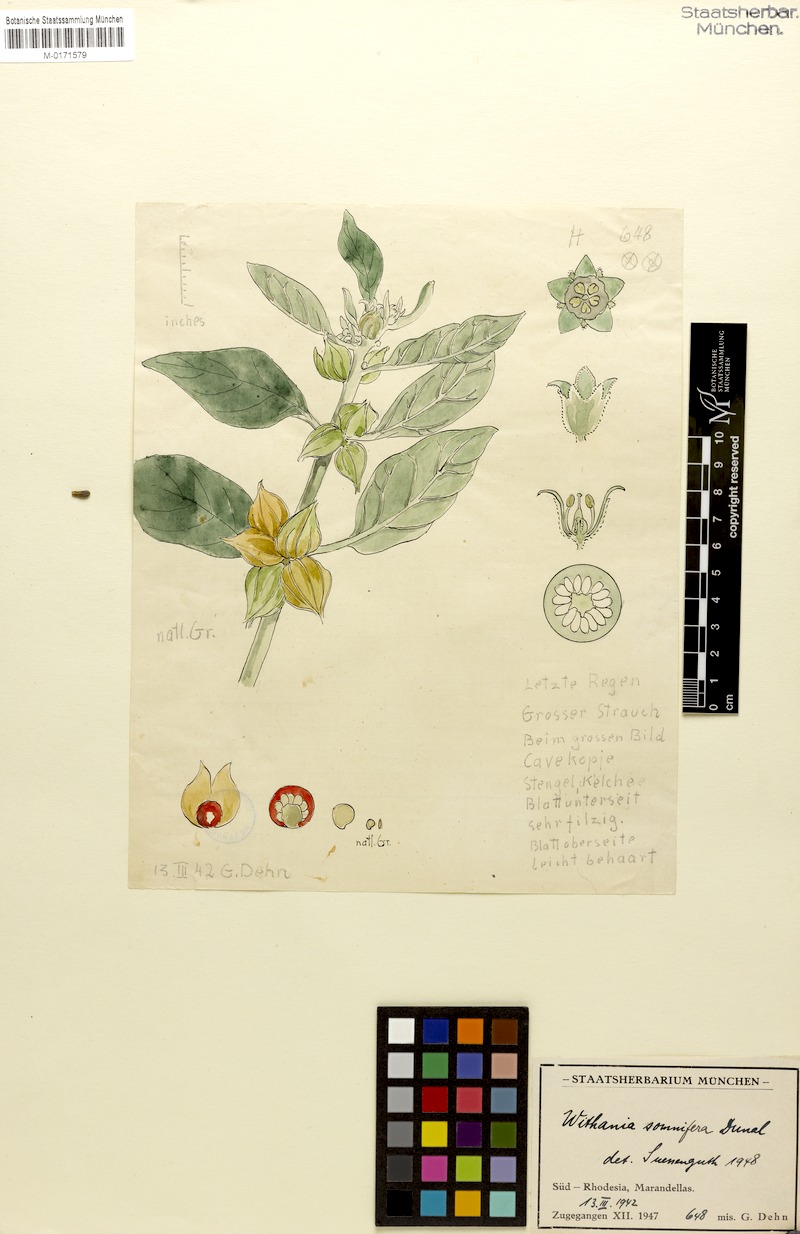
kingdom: Plantae
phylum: Tracheophyta
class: Magnoliopsida
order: Solanales
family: Solanaceae
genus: Withania
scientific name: Withania somnifera
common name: Winter-cherry
